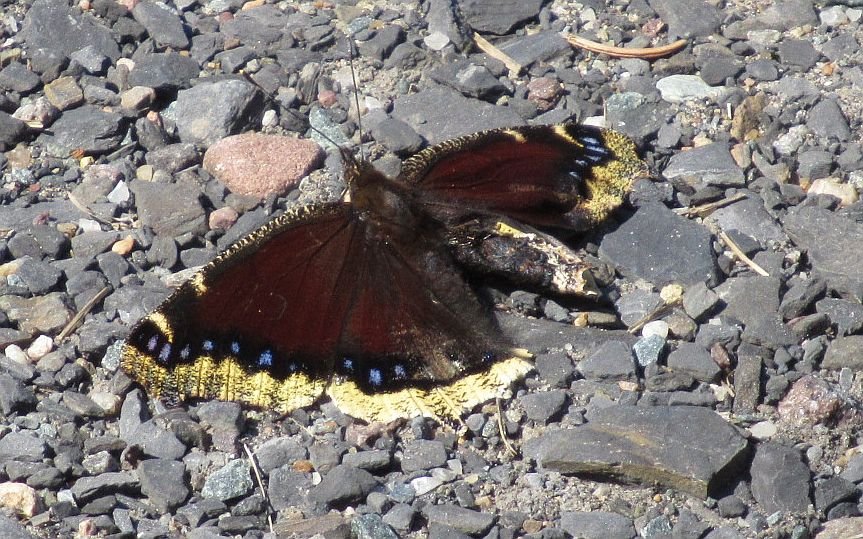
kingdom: Animalia
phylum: Arthropoda
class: Insecta
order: Lepidoptera
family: Nymphalidae
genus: Nymphalis
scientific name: Nymphalis antiopa
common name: Mourning Cloak
